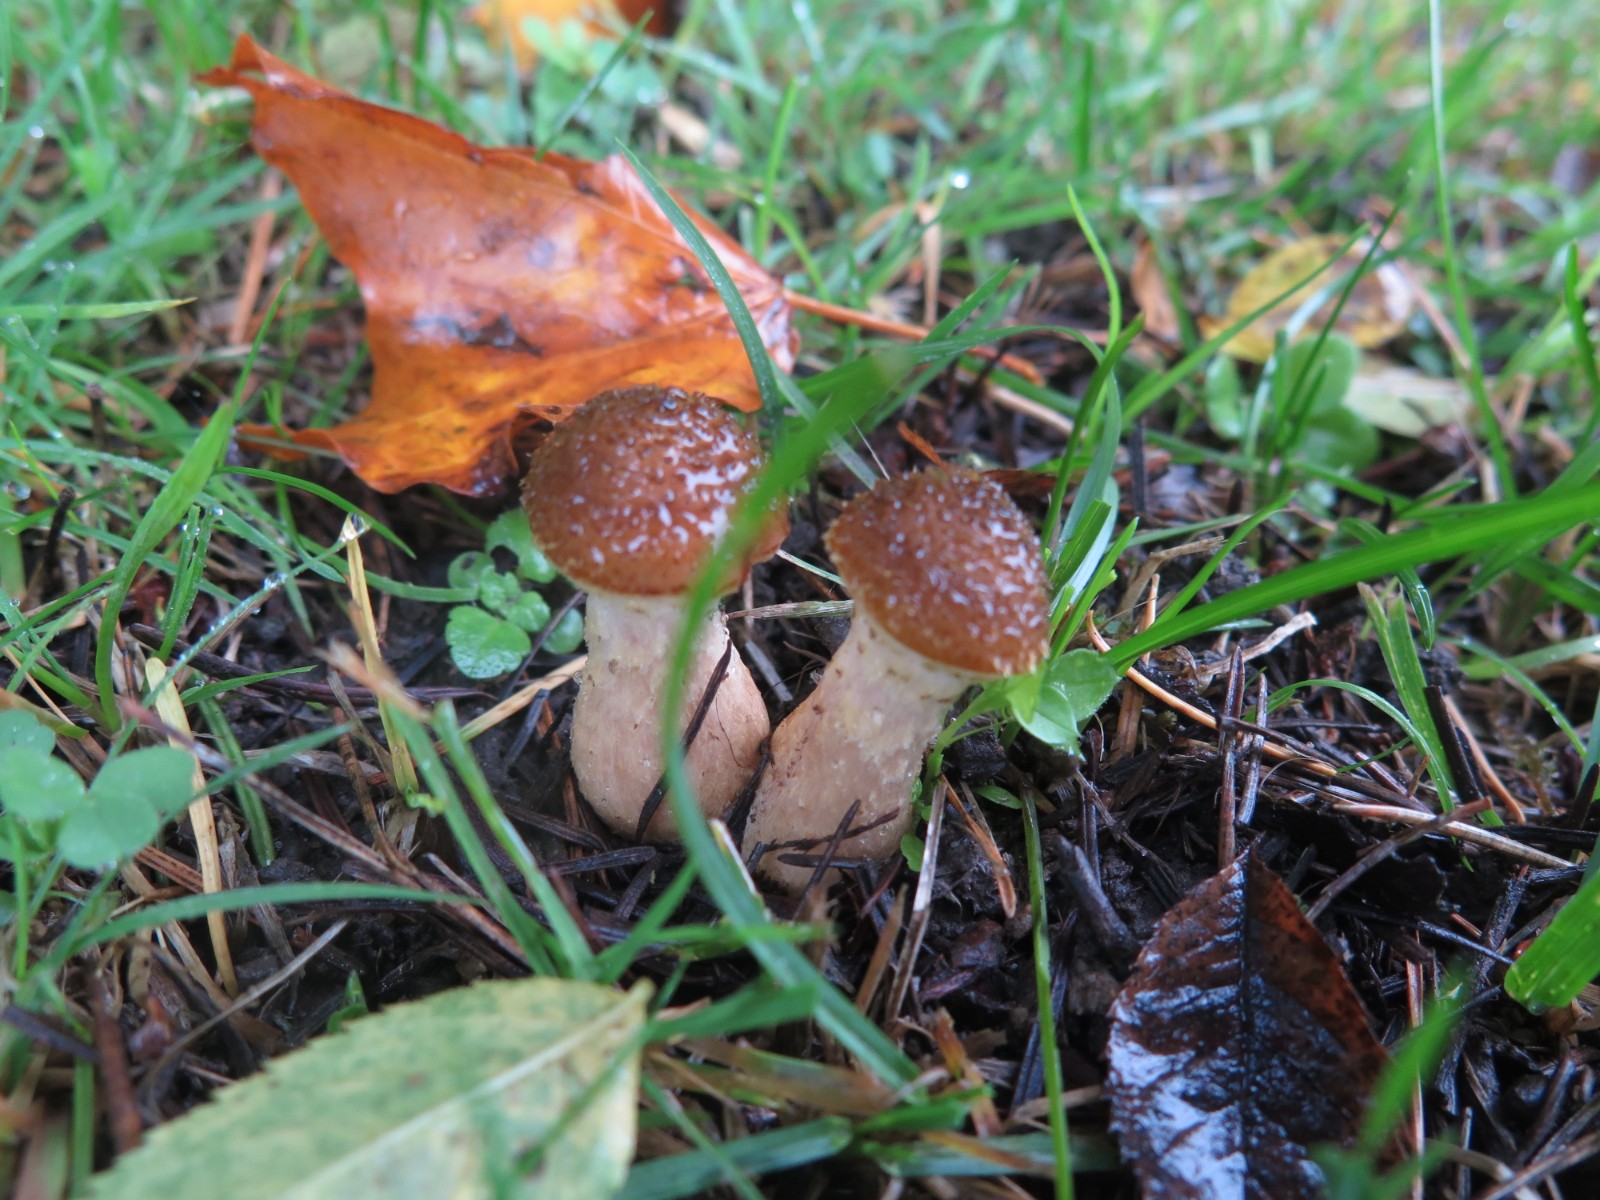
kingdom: Fungi
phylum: Basidiomycota
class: Agaricomycetes
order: Agaricales
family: Physalacriaceae
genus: Armillaria
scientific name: Armillaria lutea
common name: køllestokket honningsvamp
